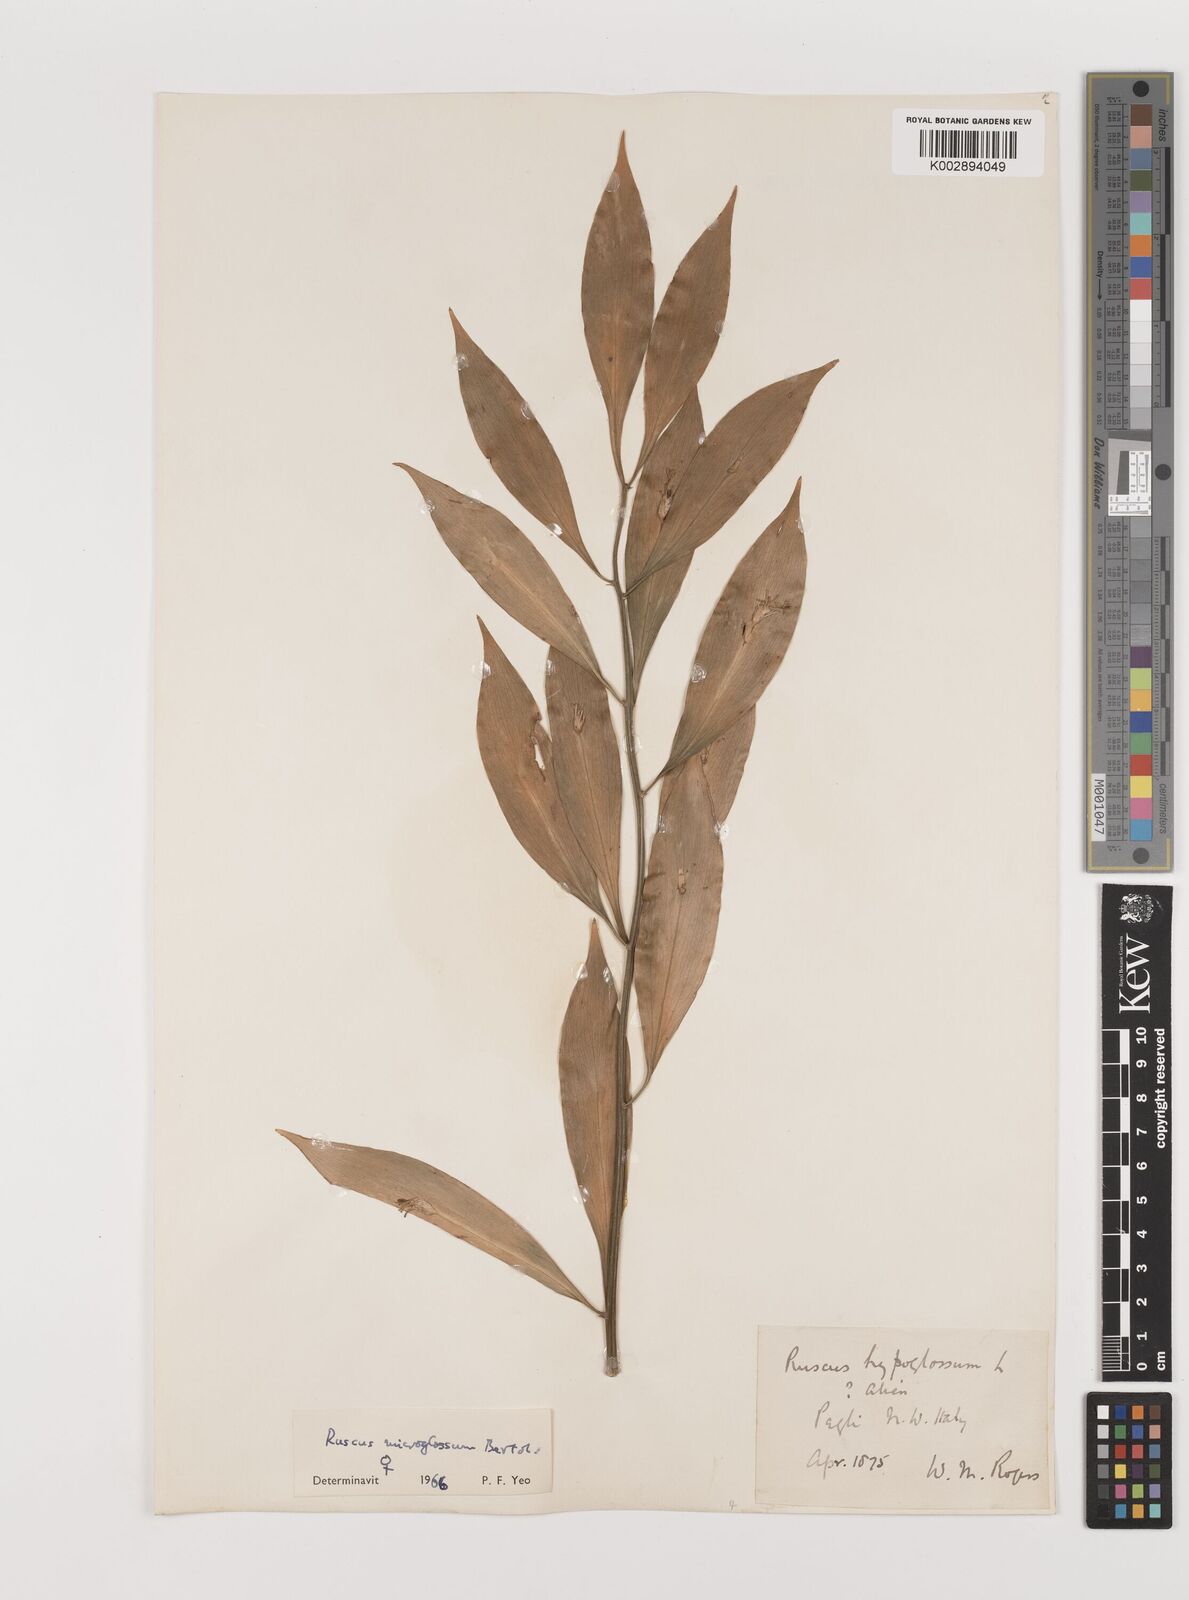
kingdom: Plantae
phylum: Tracheophyta
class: Liliopsida
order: Asparagales
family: Asparagaceae
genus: Ruscus
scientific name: Ruscus microglossus
